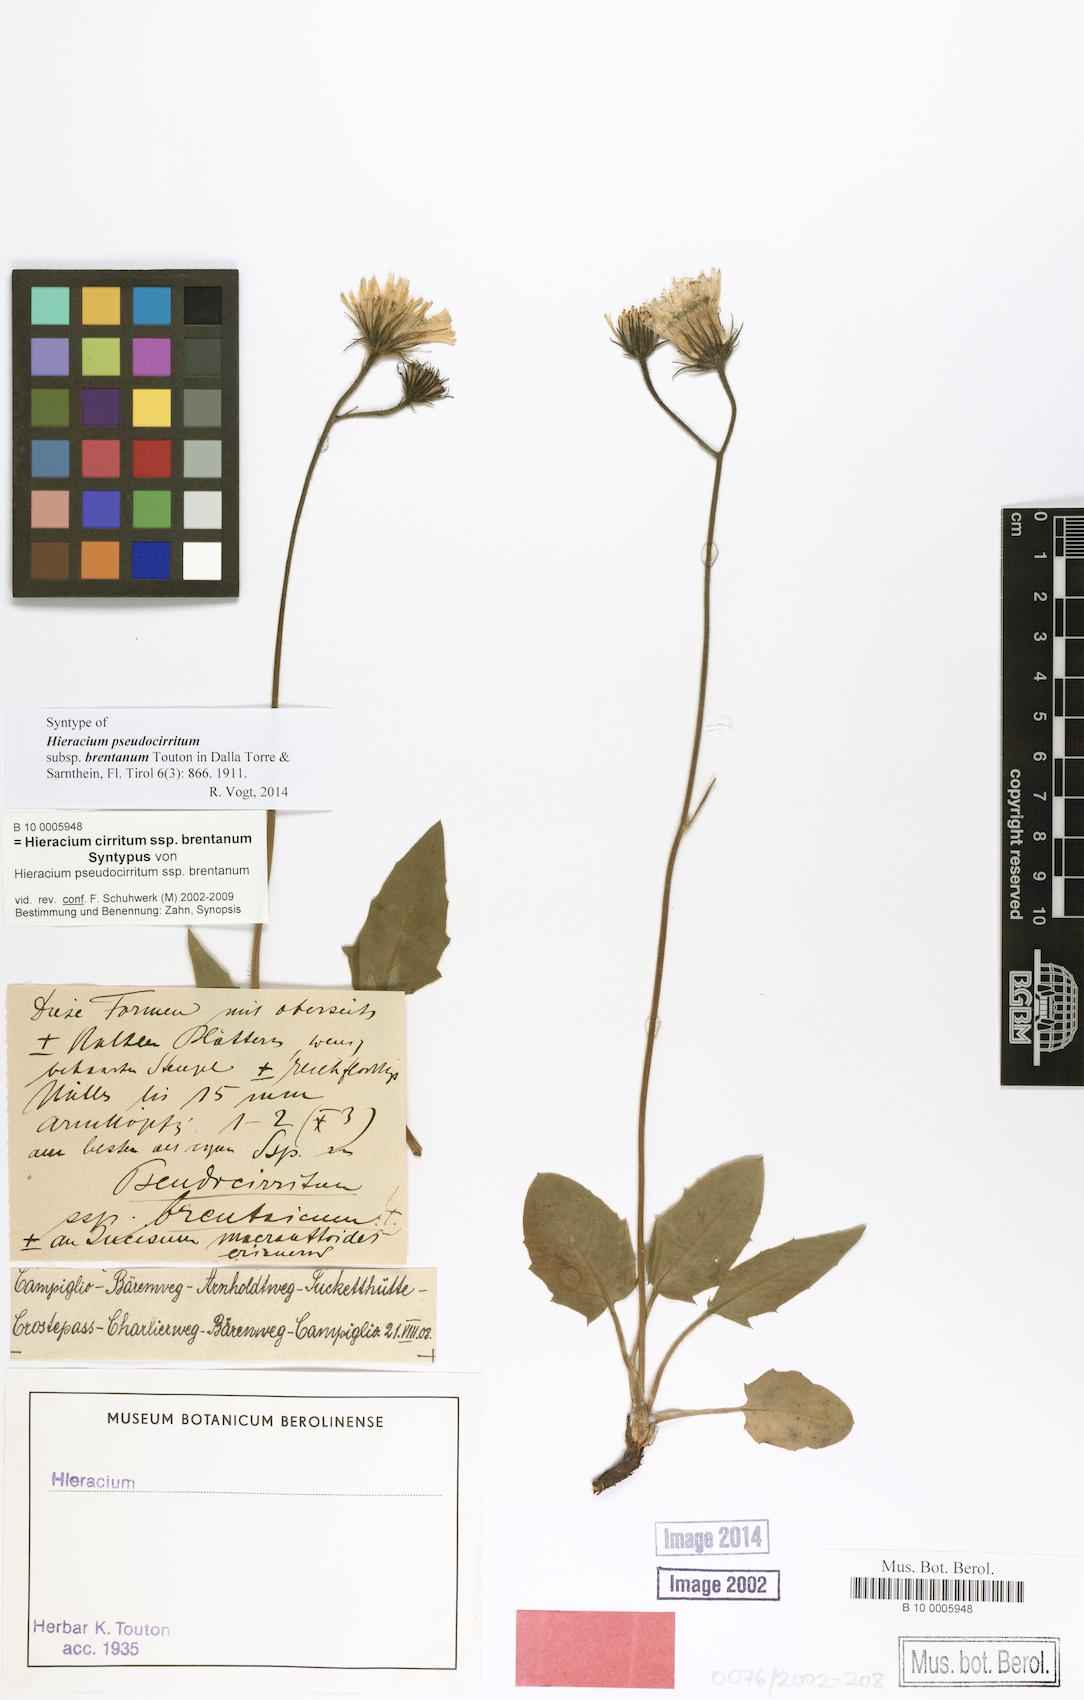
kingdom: Plantae
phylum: Tracheophyta
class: Magnoliopsida
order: Asterales
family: Asteraceae
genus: Hieracium
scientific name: Hieracium cirritum
